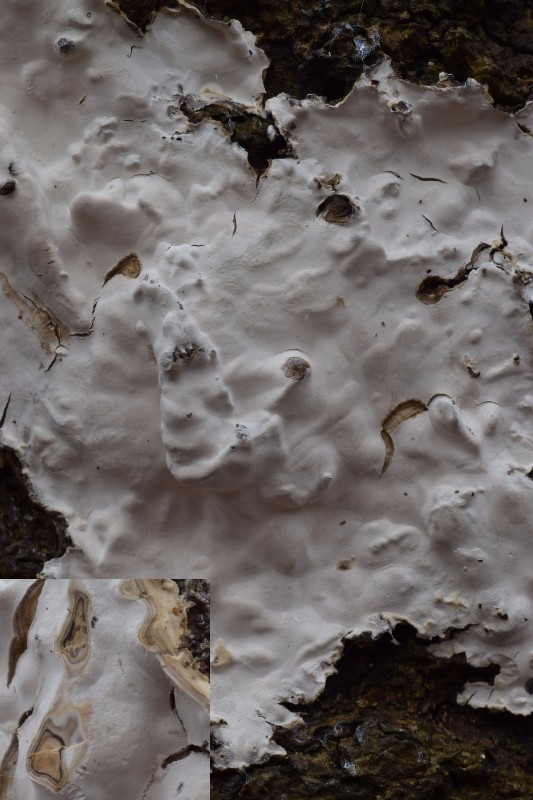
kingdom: Fungi
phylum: Basidiomycota
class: Agaricomycetes
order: Russulales
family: Peniophoraceae
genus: Scytinostroma
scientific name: Scytinostroma hemidichophyticum
